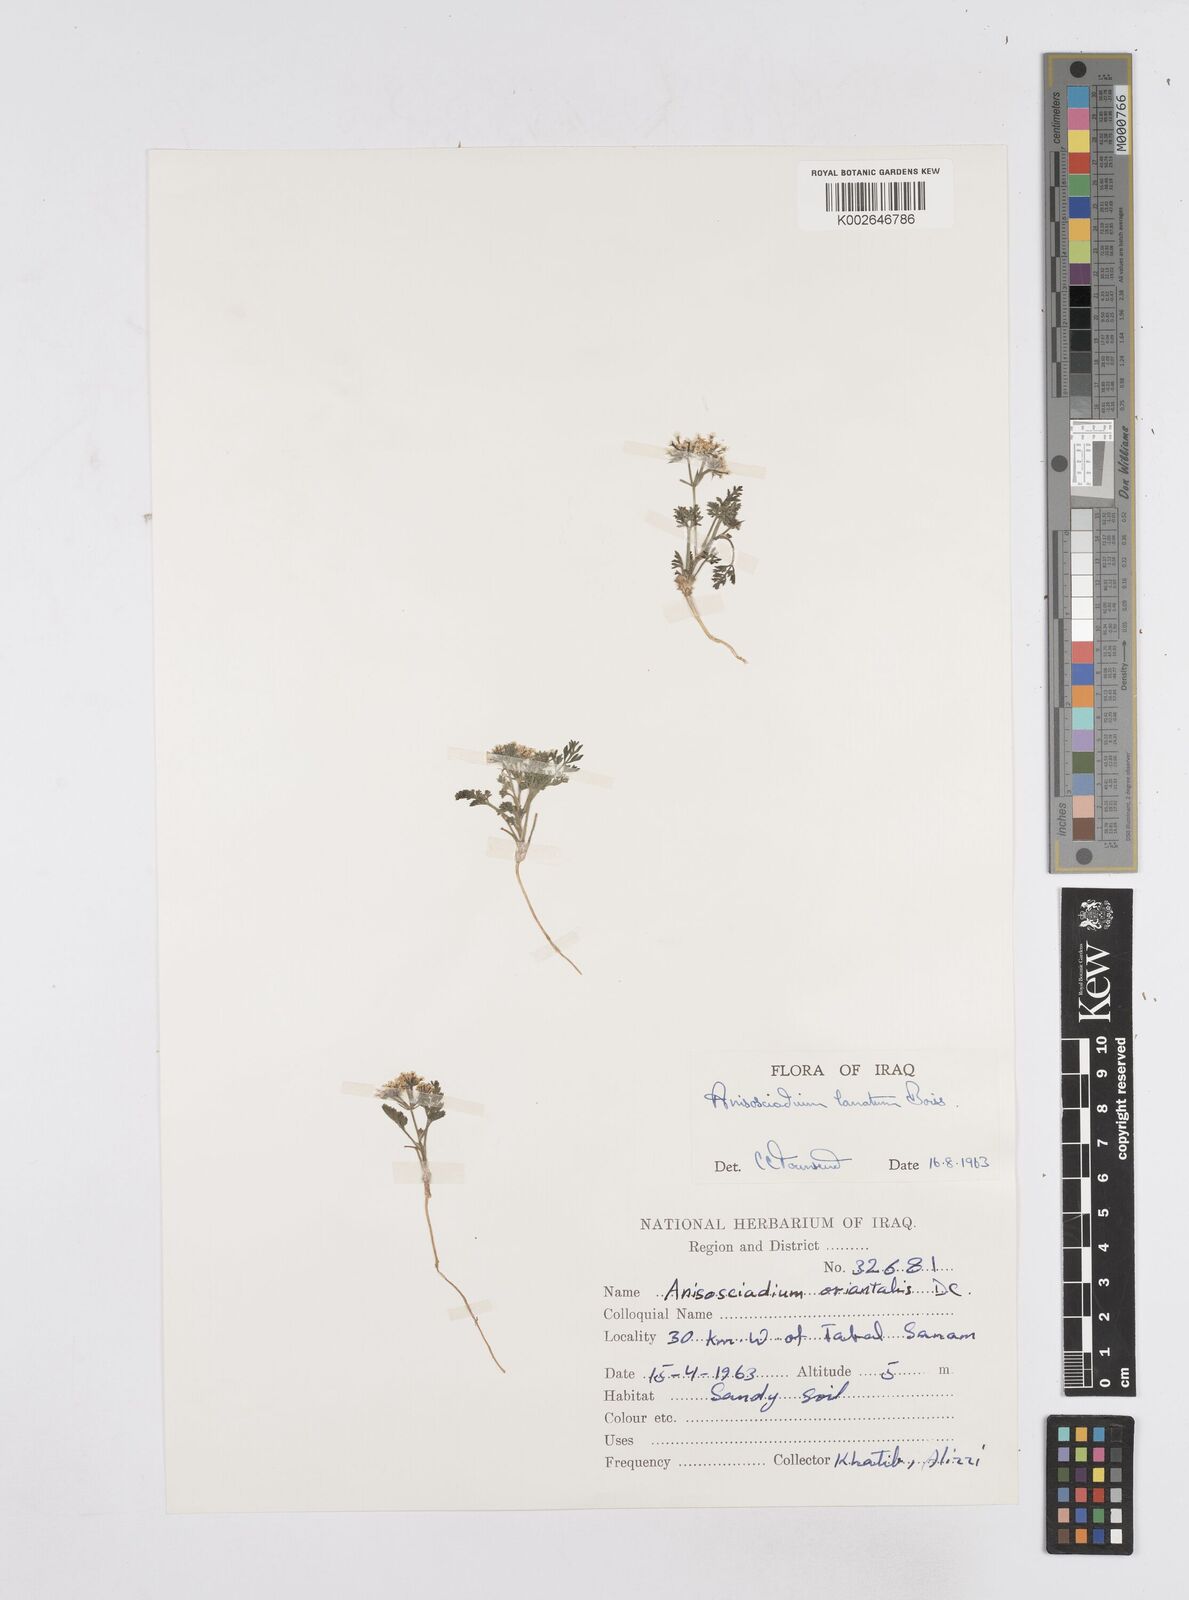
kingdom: Plantae
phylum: Tracheophyta
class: Magnoliopsida
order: Apiales
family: Apiaceae
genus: Anisosciadium
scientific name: Anisosciadium lanatum
